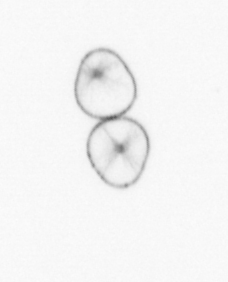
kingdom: Chromista
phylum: Myzozoa
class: Dinophyceae
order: Noctilucales
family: Noctilucaceae
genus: Noctiluca
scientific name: Noctiluca scintillans
